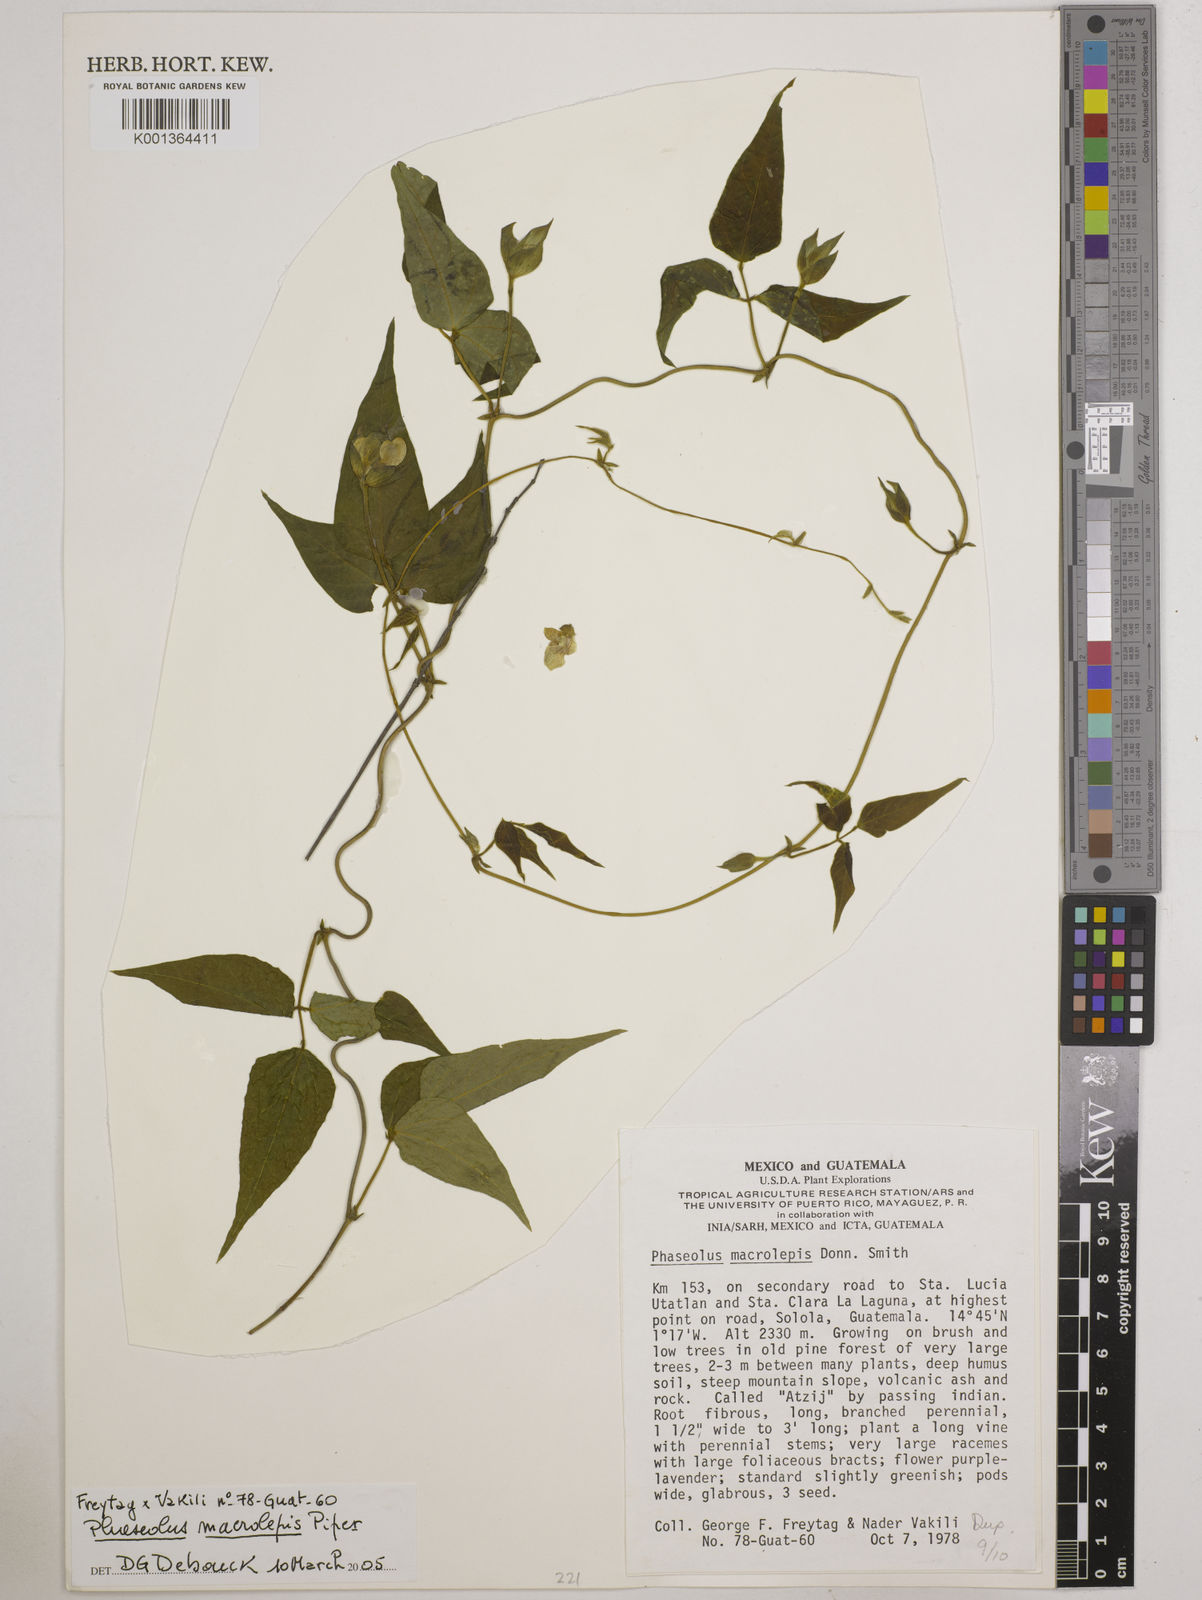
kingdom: Plantae
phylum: Tracheophyta
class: Magnoliopsida
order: Fabales
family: Fabaceae
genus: Phaseolus
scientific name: Phaseolus macrolepis
